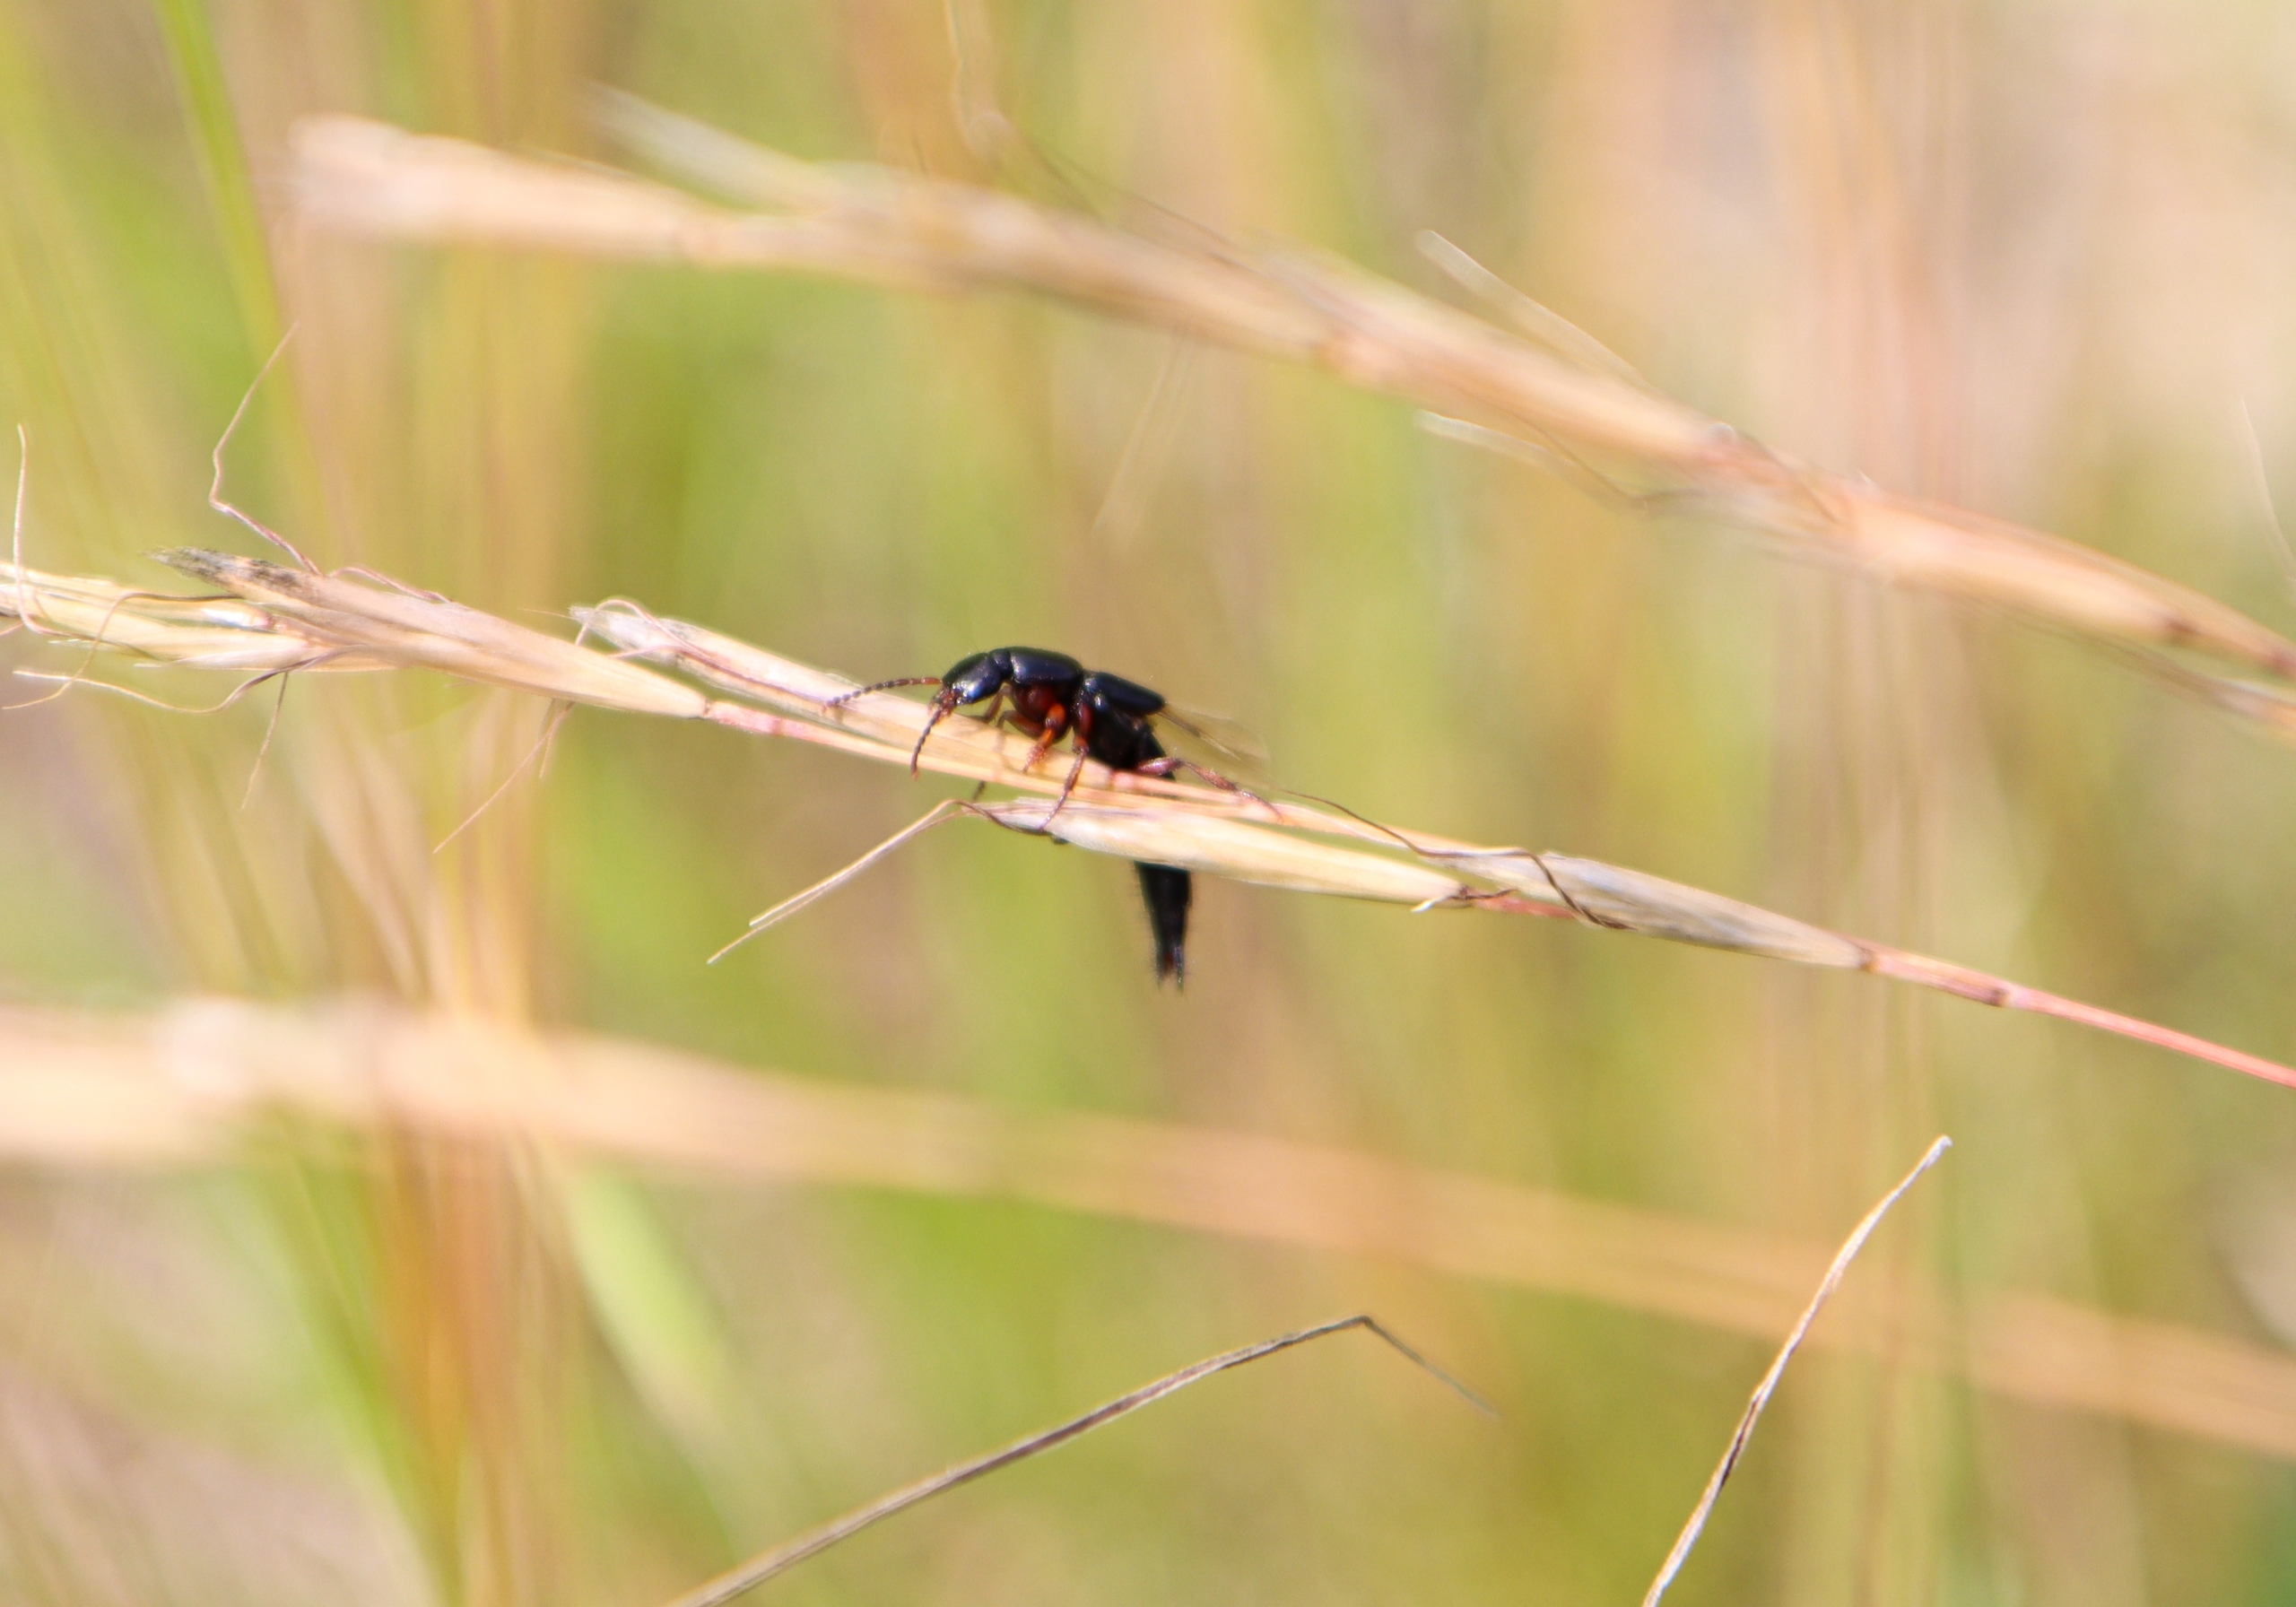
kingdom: Animalia
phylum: Arthropoda
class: Insecta
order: Coleoptera
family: Staphylinidae
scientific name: Staphylinidae
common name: Rovbiller
